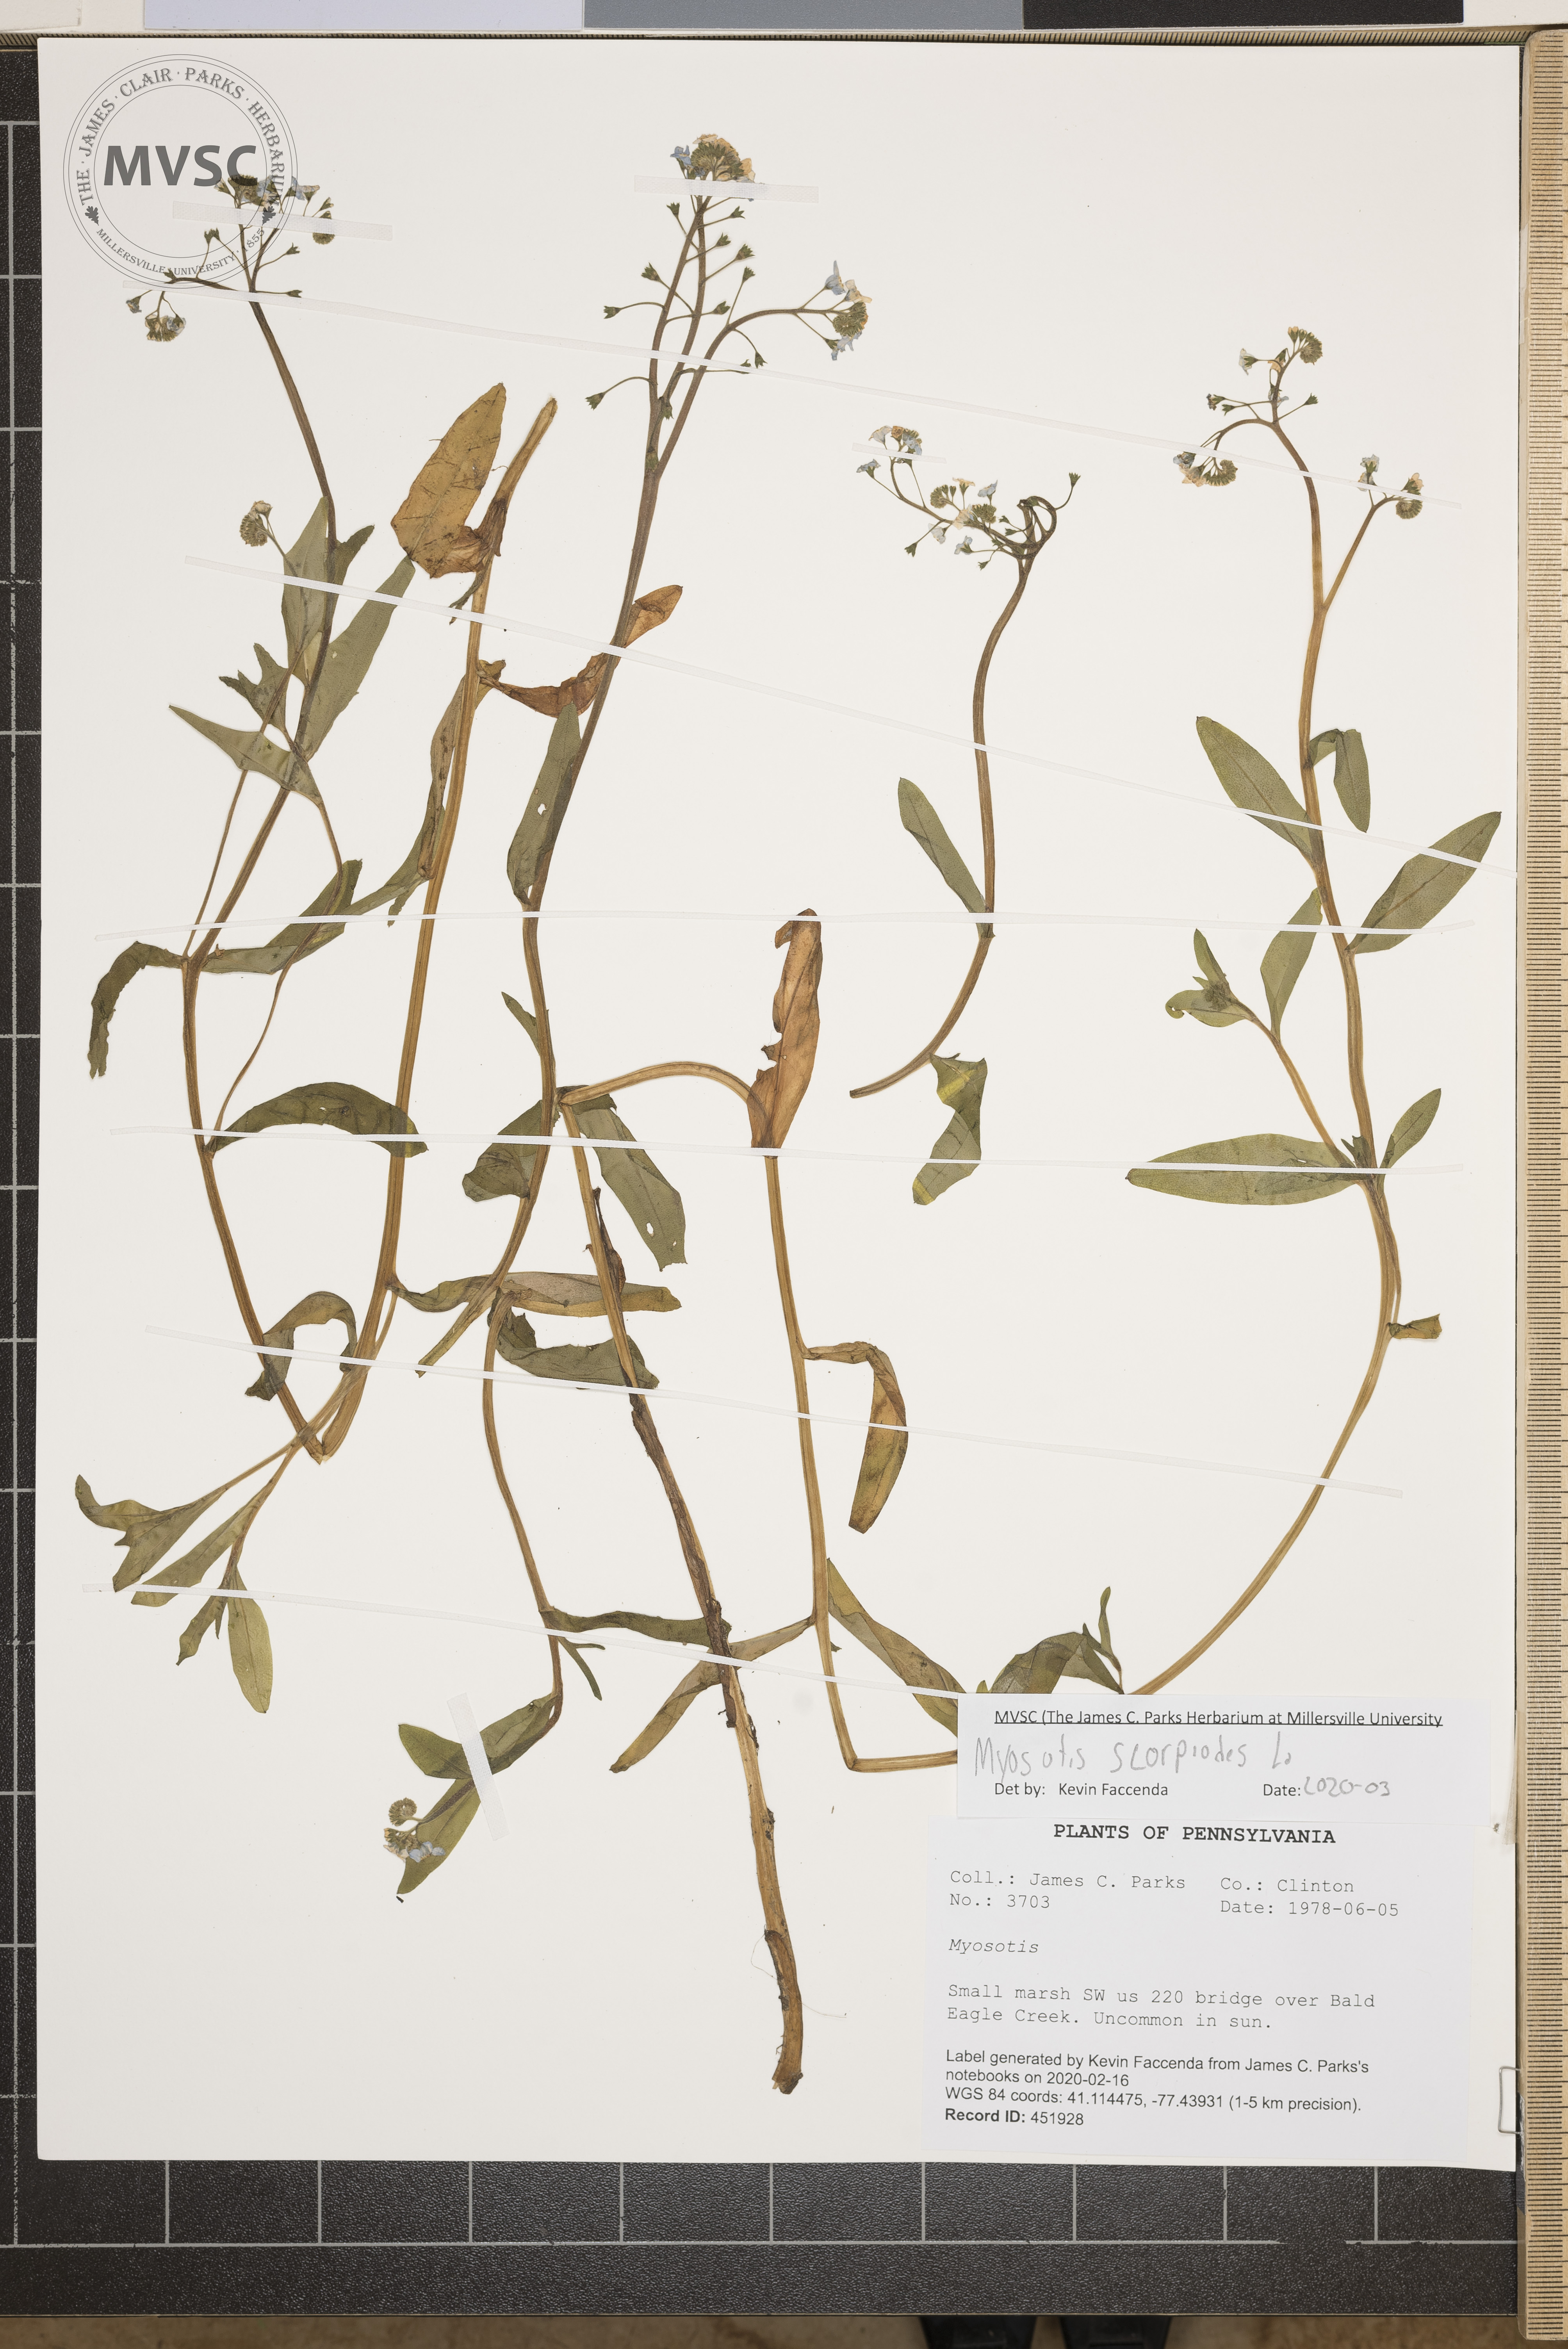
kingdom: Plantae
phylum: Tracheophyta
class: Magnoliopsida
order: Boraginales
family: Boraginaceae
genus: Myosotis
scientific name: Myosotis scorpioides
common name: Water forget-me-not
